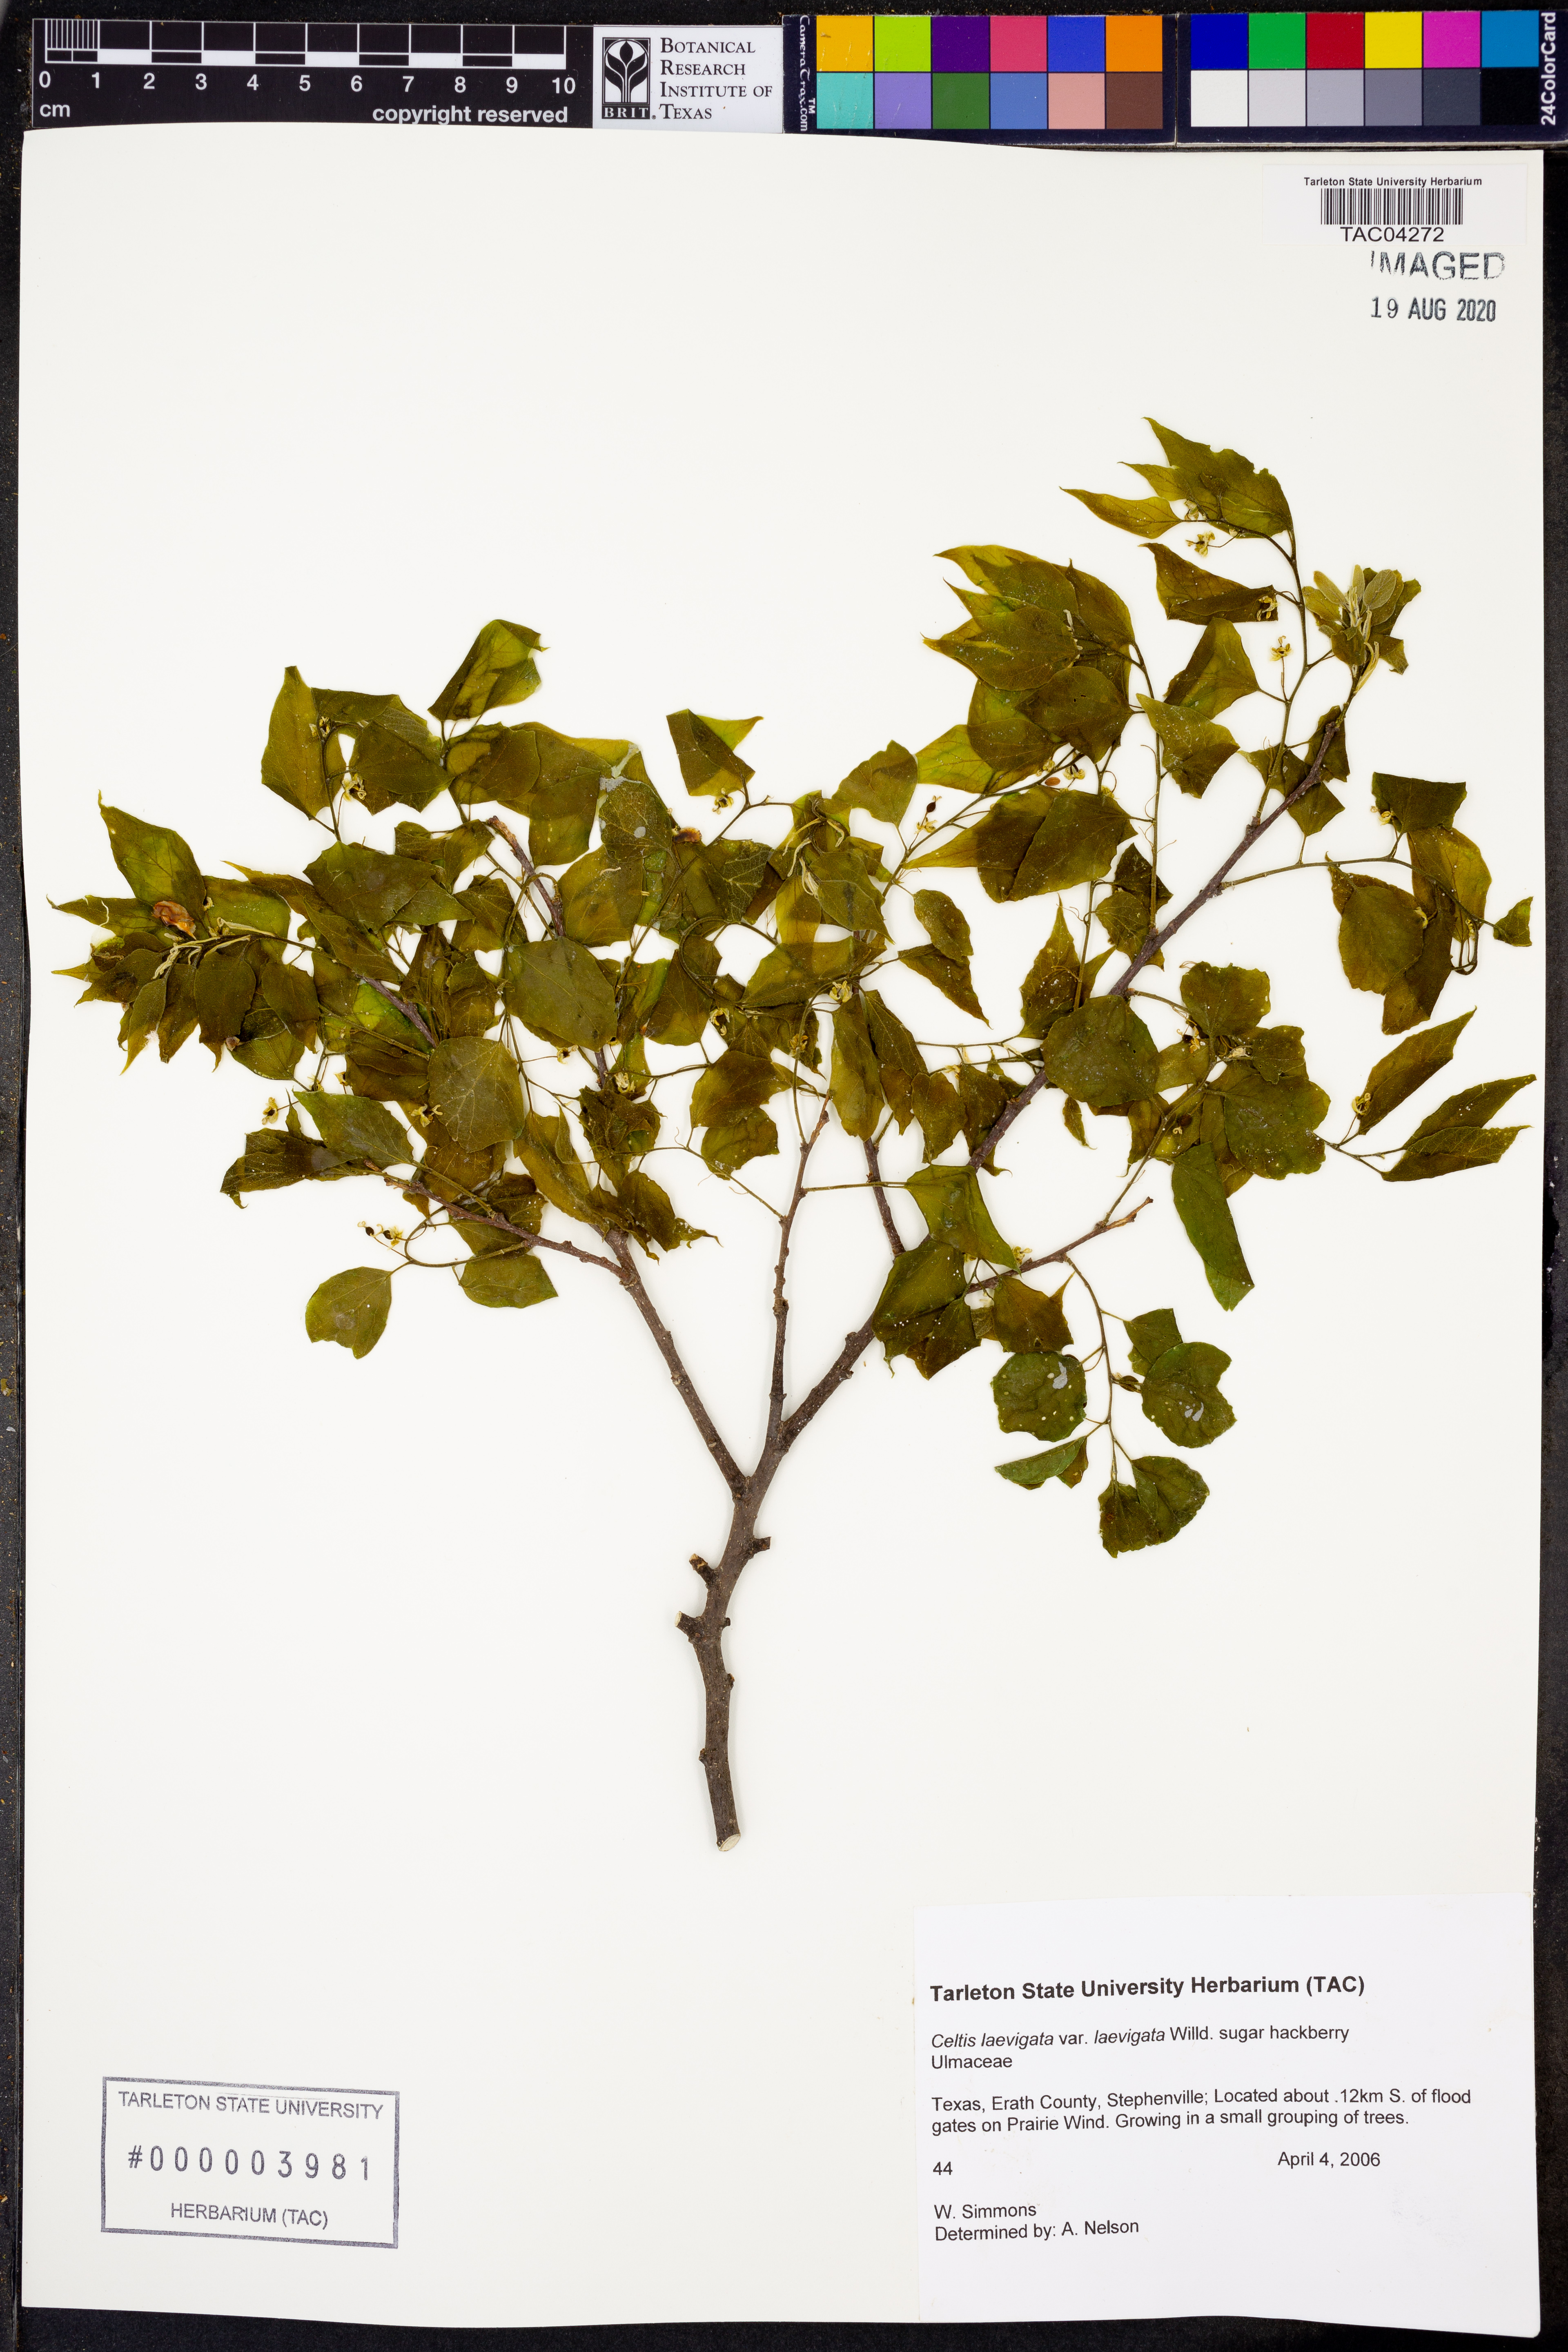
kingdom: Plantae
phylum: Tracheophyta
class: Magnoliopsida
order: Rosales
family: Cannabaceae
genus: Celtis
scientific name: Celtis laevigata
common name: Sugarberry
